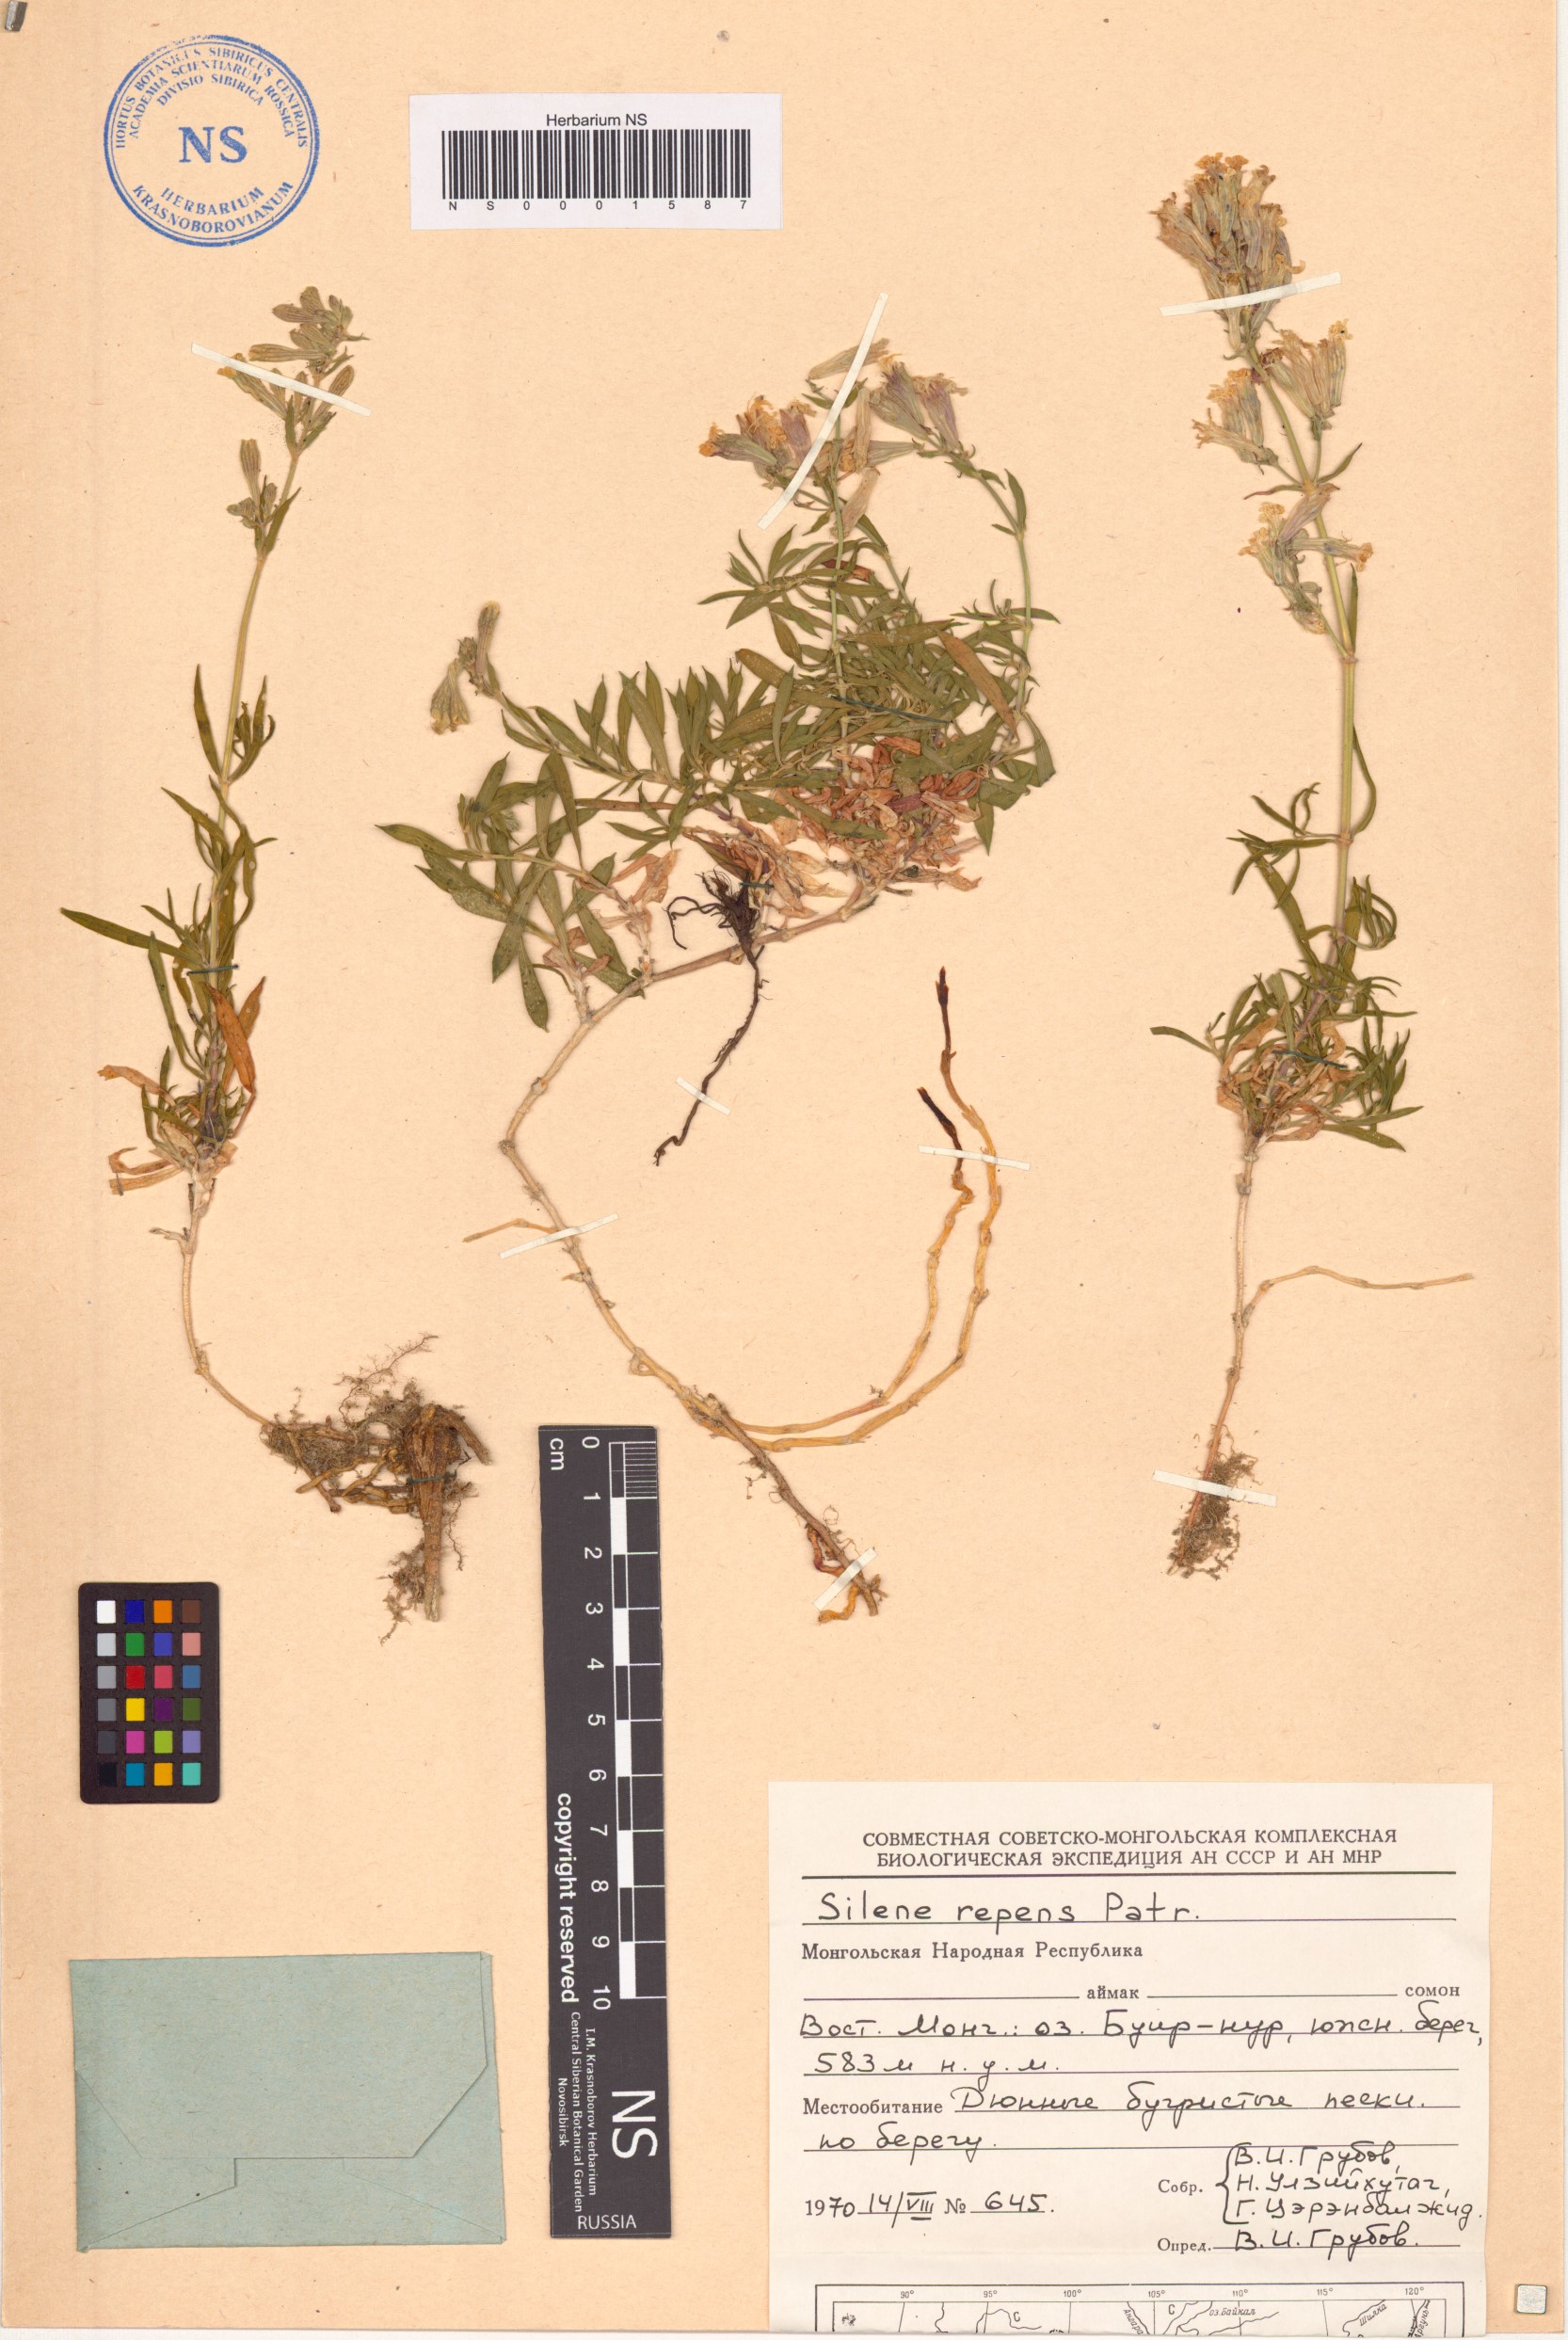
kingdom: Plantae
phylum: Tracheophyta
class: Magnoliopsida
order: Caryophyllales
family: Caryophyllaceae
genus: Silene
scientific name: Silene repens
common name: Pink campion
